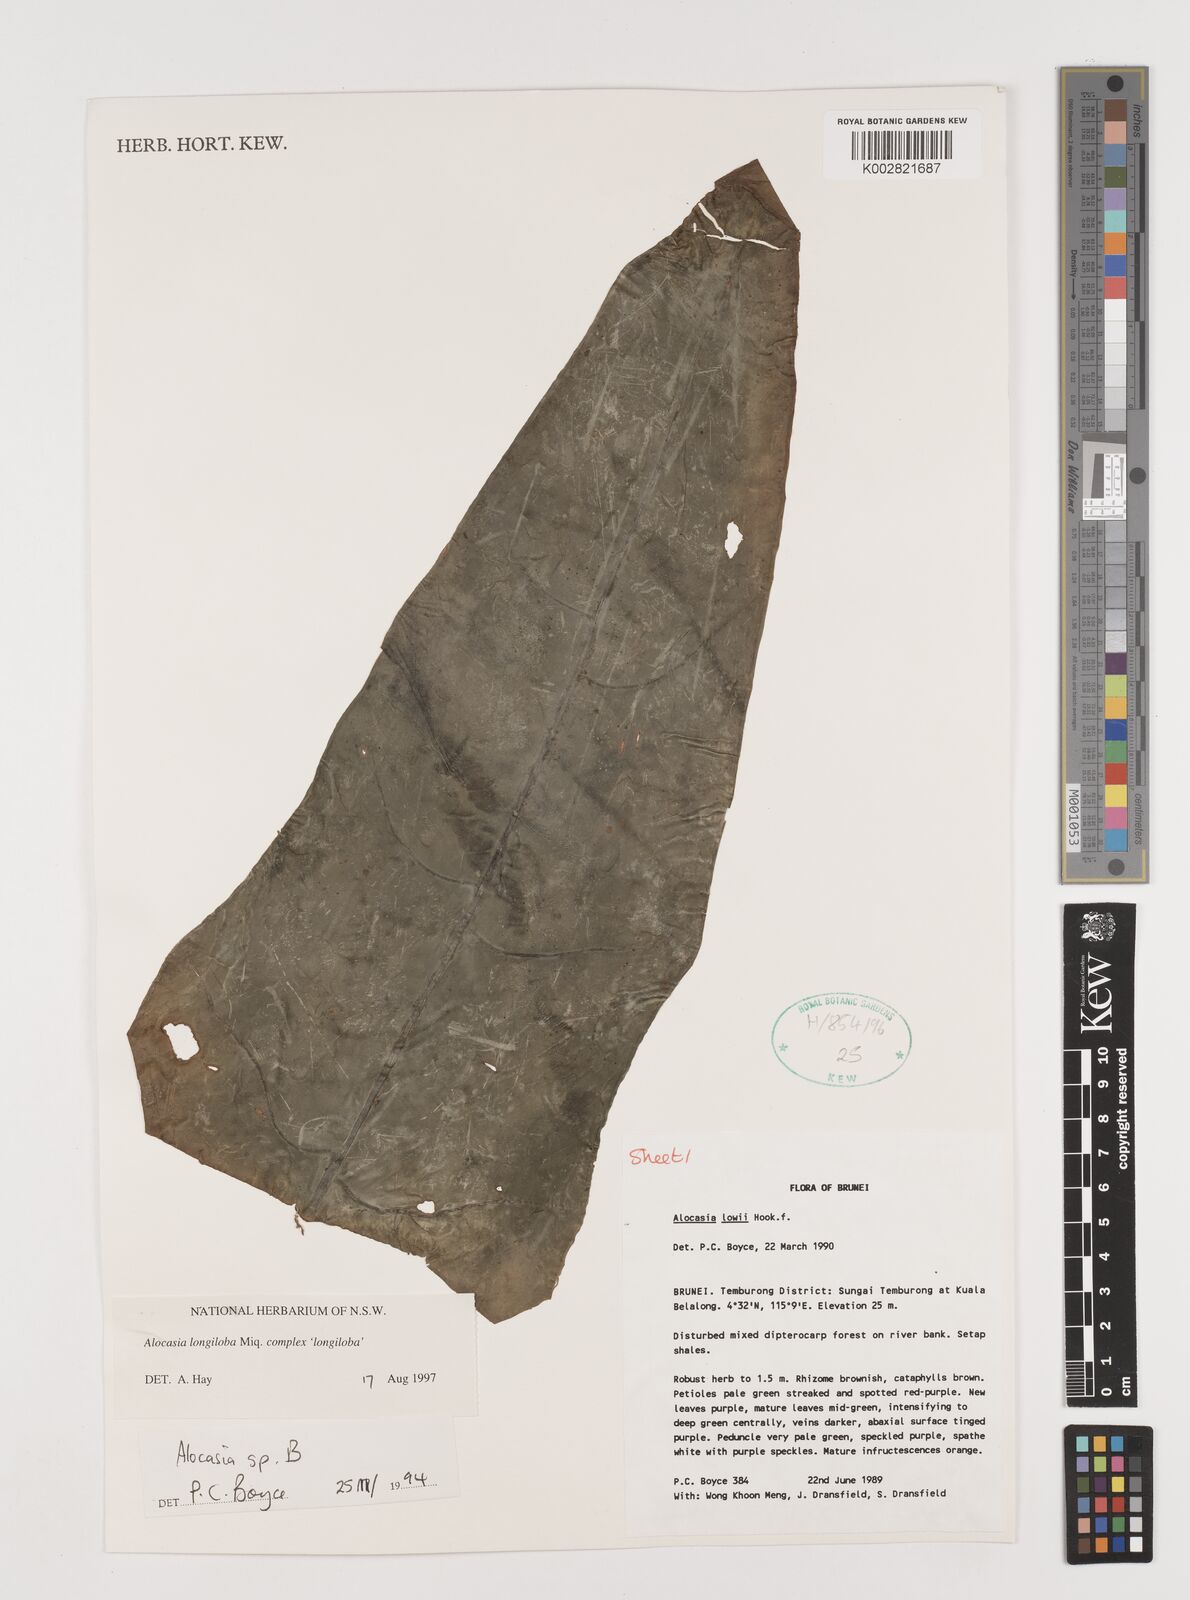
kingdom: Plantae
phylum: Tracheophyta
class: Liliopsida
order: Alismatales
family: Araceae
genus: Alocasia
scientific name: Alocasia longiloba
